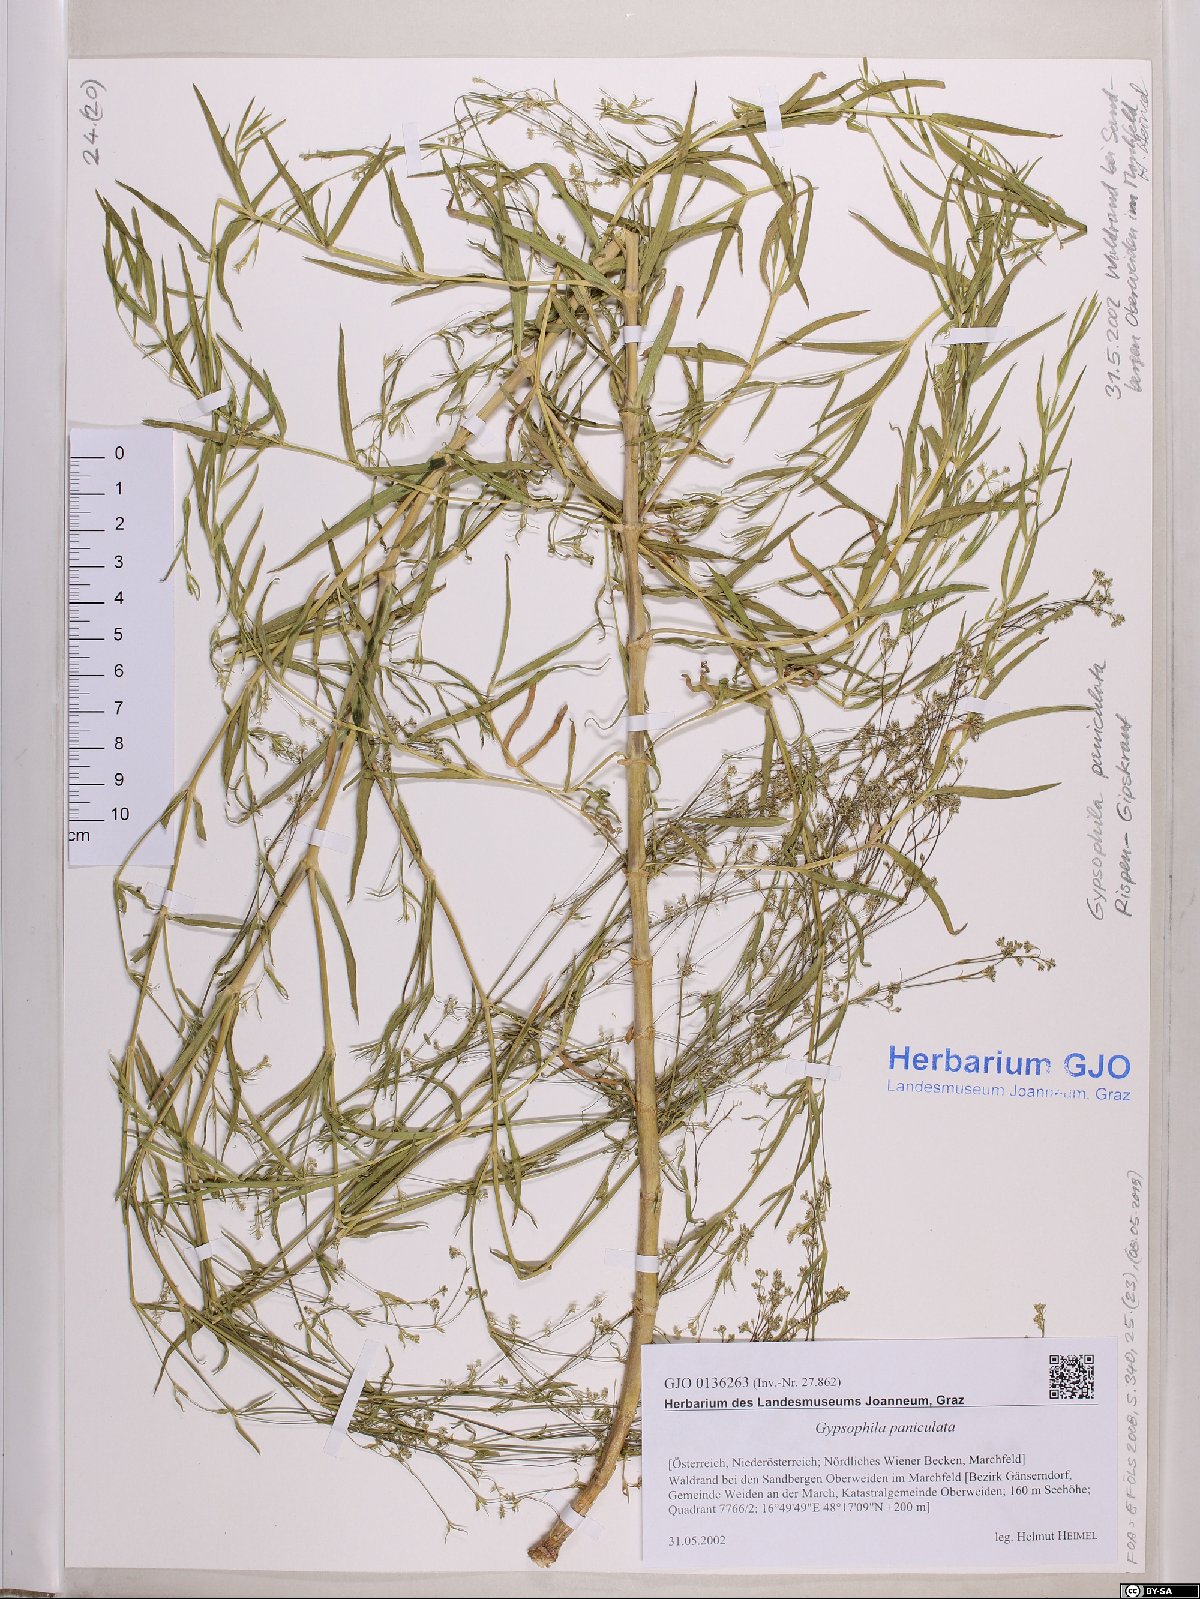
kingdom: Plantae
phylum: Tracheophyta
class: Magnoliopsida
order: Caryophyllales
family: Caryophyllaceae
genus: Gypsophila
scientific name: Gypsophila paniculata
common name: Baby's-breath
